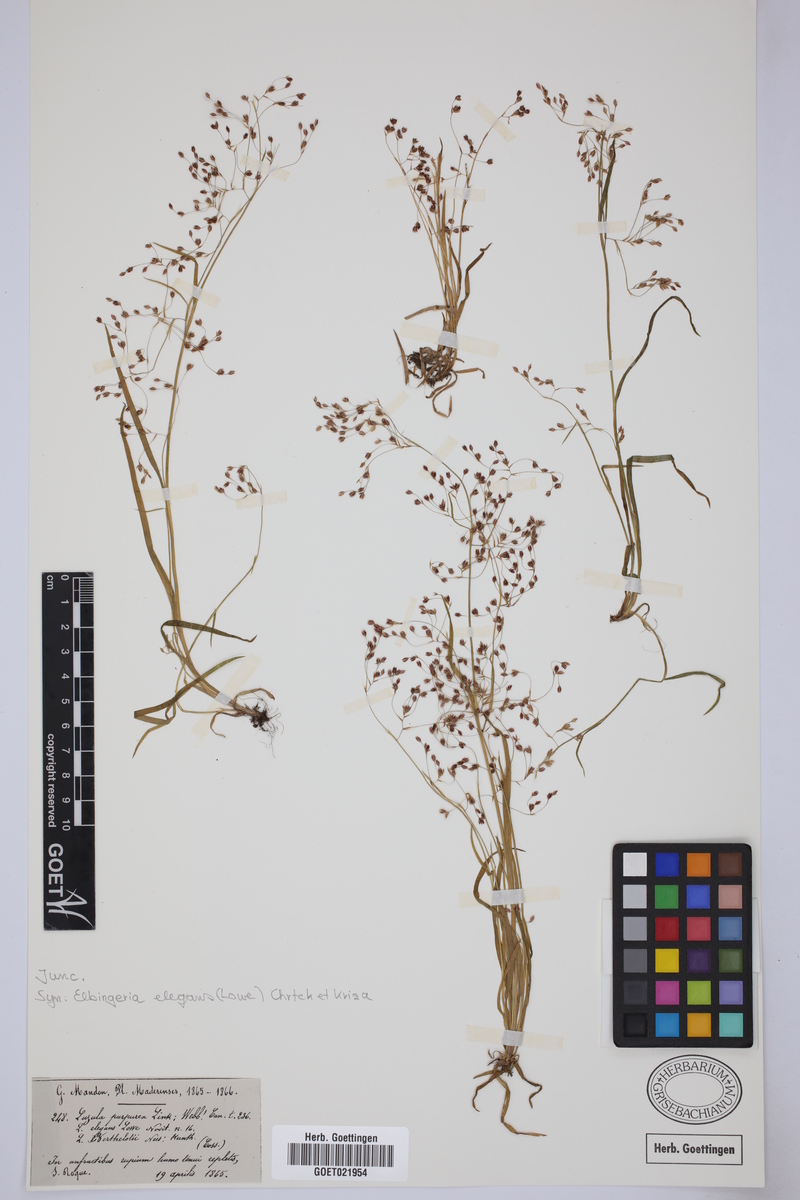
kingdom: Plantae
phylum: Tracheophyta
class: Liliopsida
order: Poales
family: Juncaceae
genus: Luzula
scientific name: Luzula elegans
